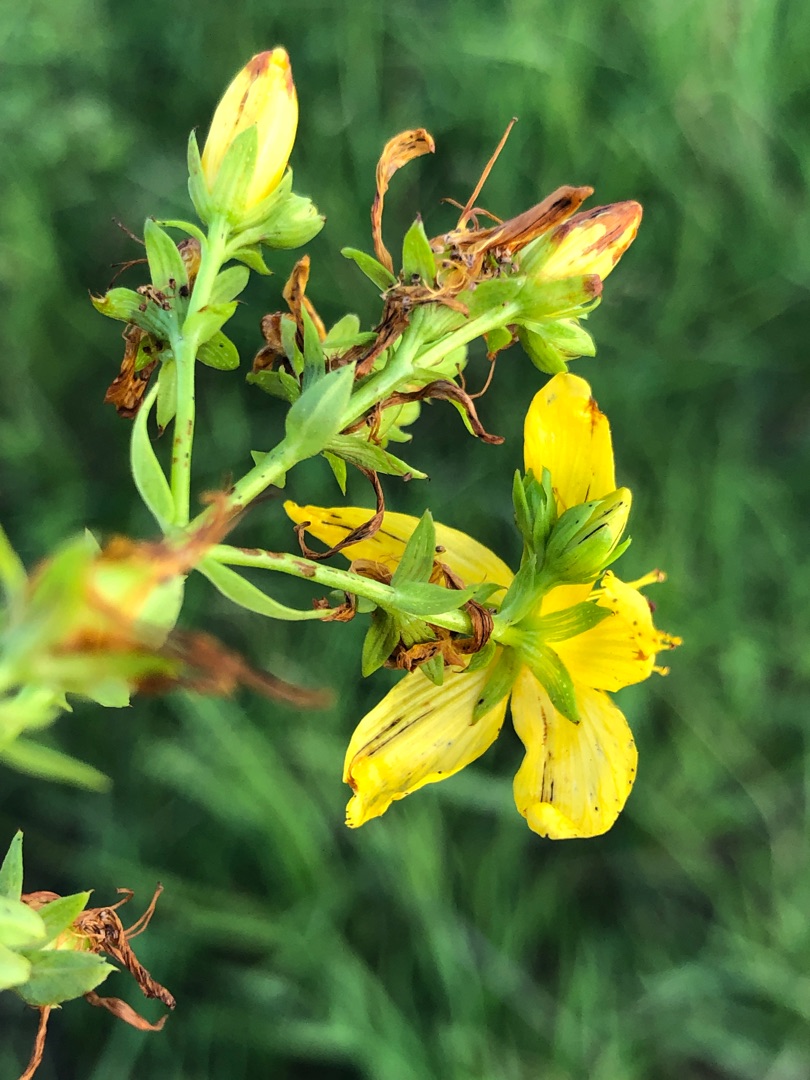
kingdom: Plantae
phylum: Tracheophyta
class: Magnoliopsida
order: Malpighiales
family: Hypericaceae
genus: Hypericum
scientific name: Hypericum perforatum
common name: Prikbladet perikon
